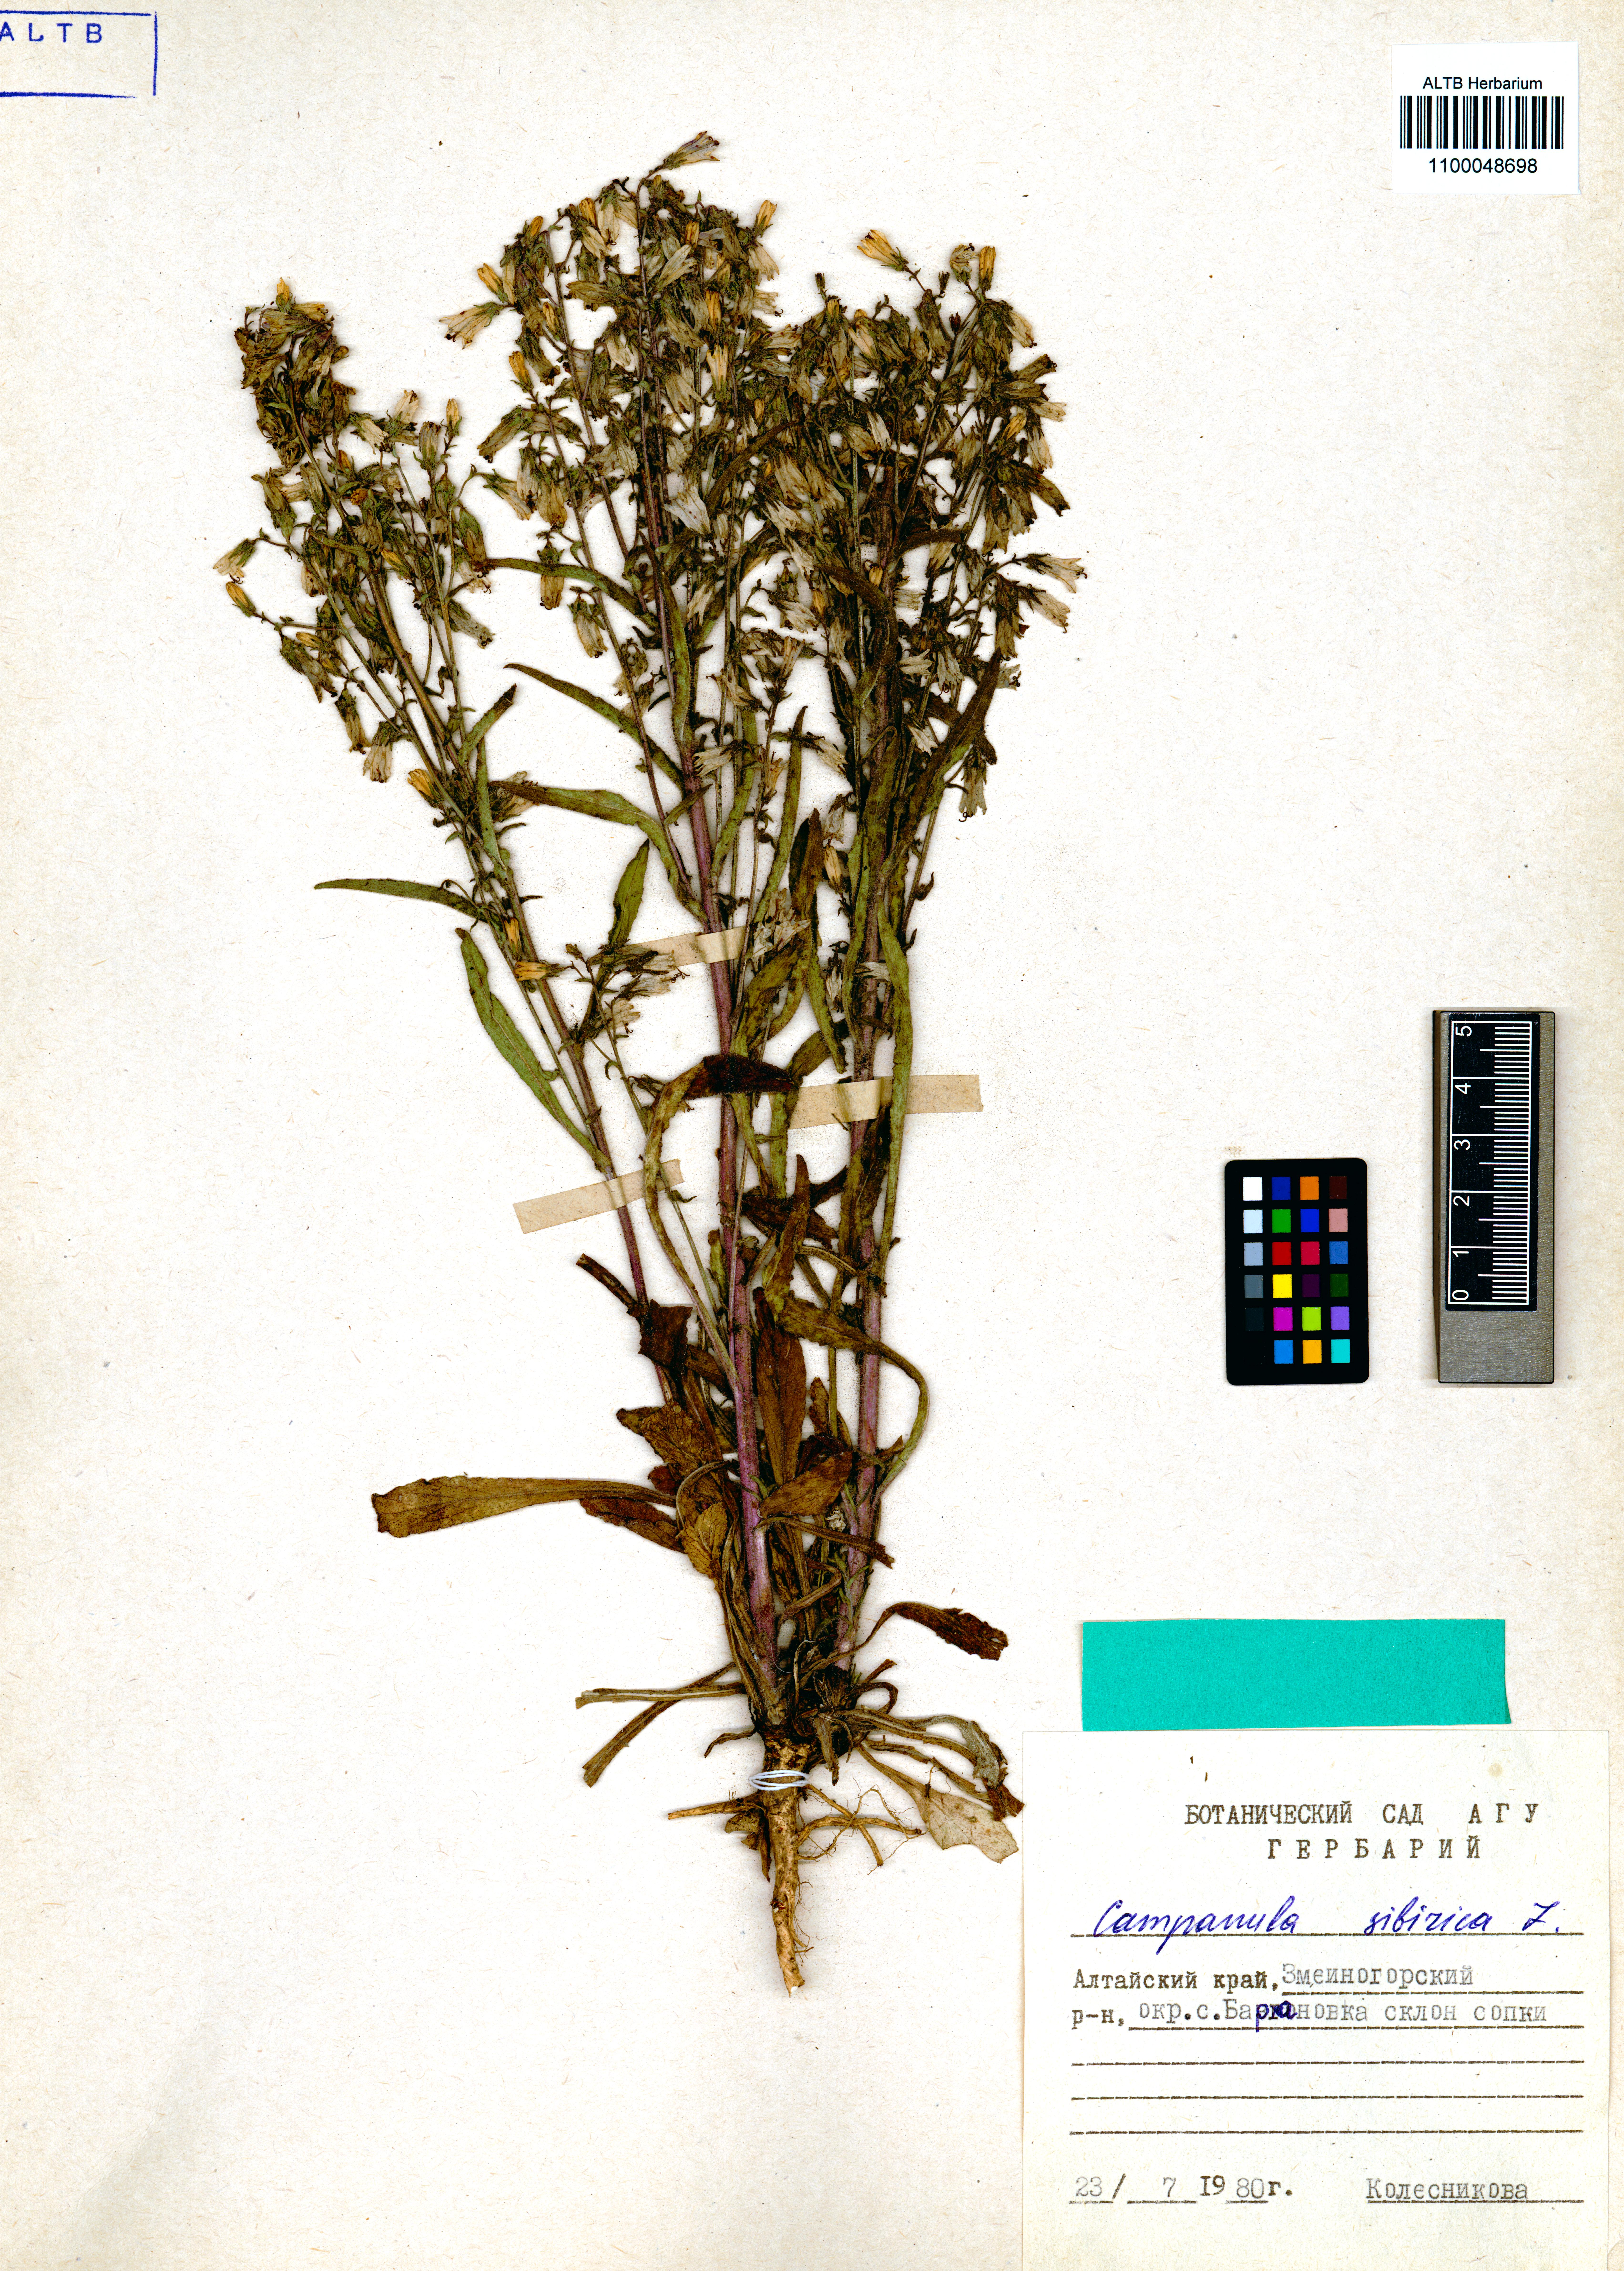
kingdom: Plantae
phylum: Tracheophyta
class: Magnoliopsida
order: Asterales
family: Campanulaceae
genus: Campanula
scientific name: Campanula sibirica
